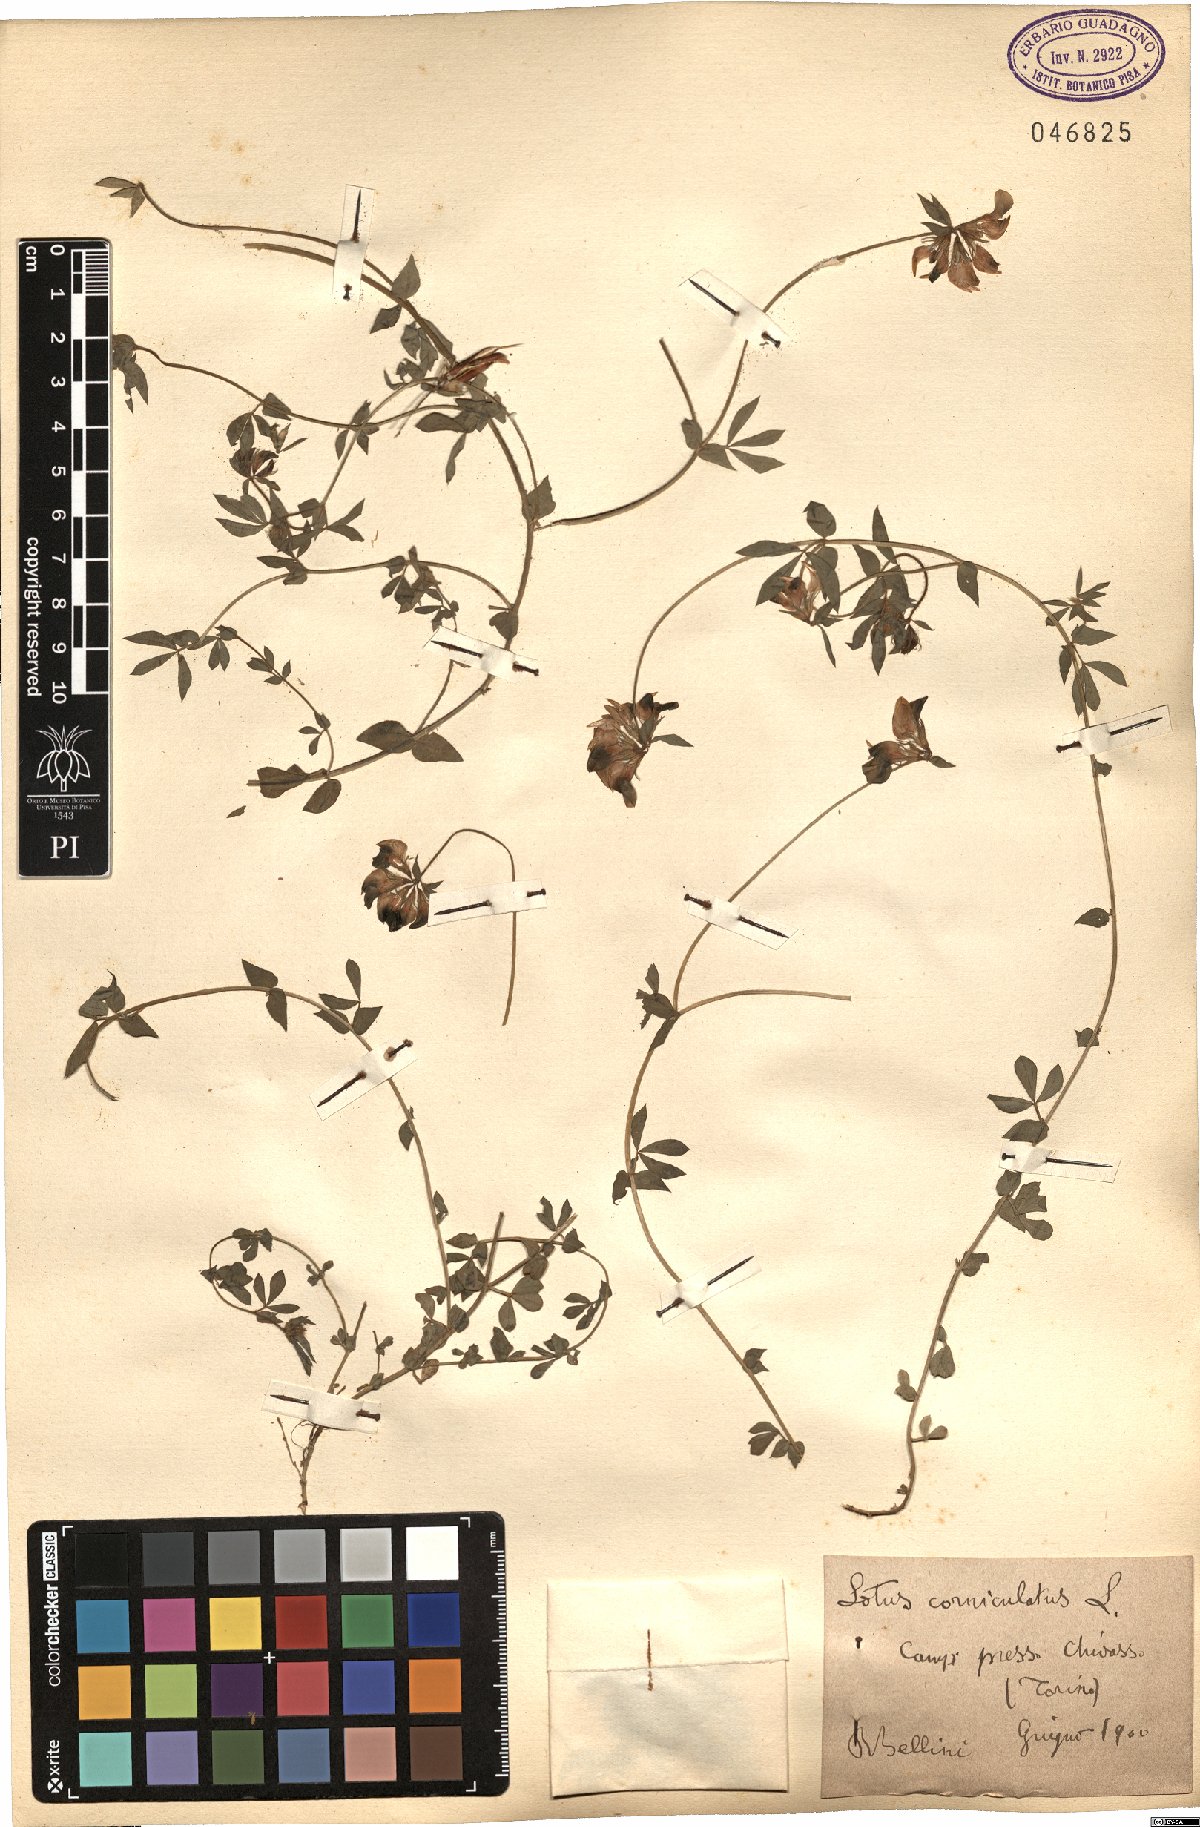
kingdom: Plantae
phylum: Tracheophyta
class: Magnoliopsida
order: Fabales
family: Fabaceae
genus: Lotus
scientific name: Lotus corniculatus
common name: Common bird's-foot-trefoil
